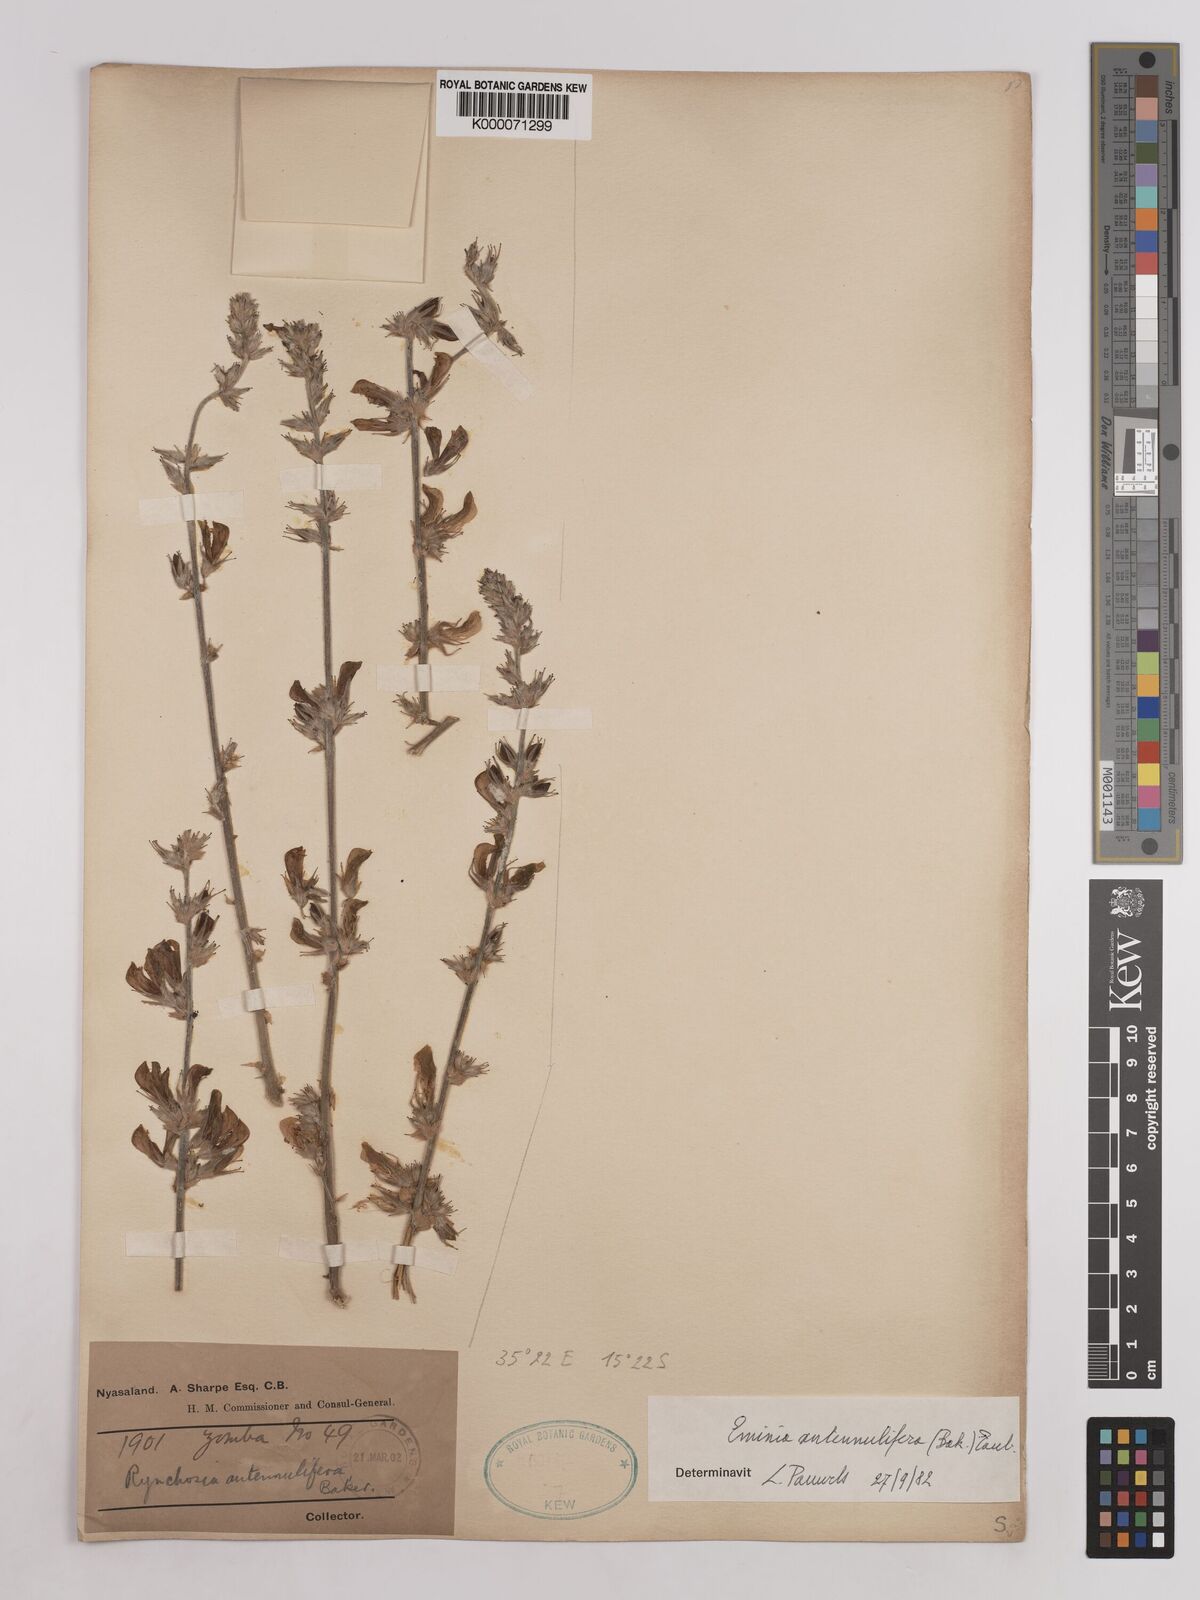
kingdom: Plantae
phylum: Tracheophyta
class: Magnoliopsida
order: Fabales
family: Fabaceae
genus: Eminia
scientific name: Eminia antennulifera
